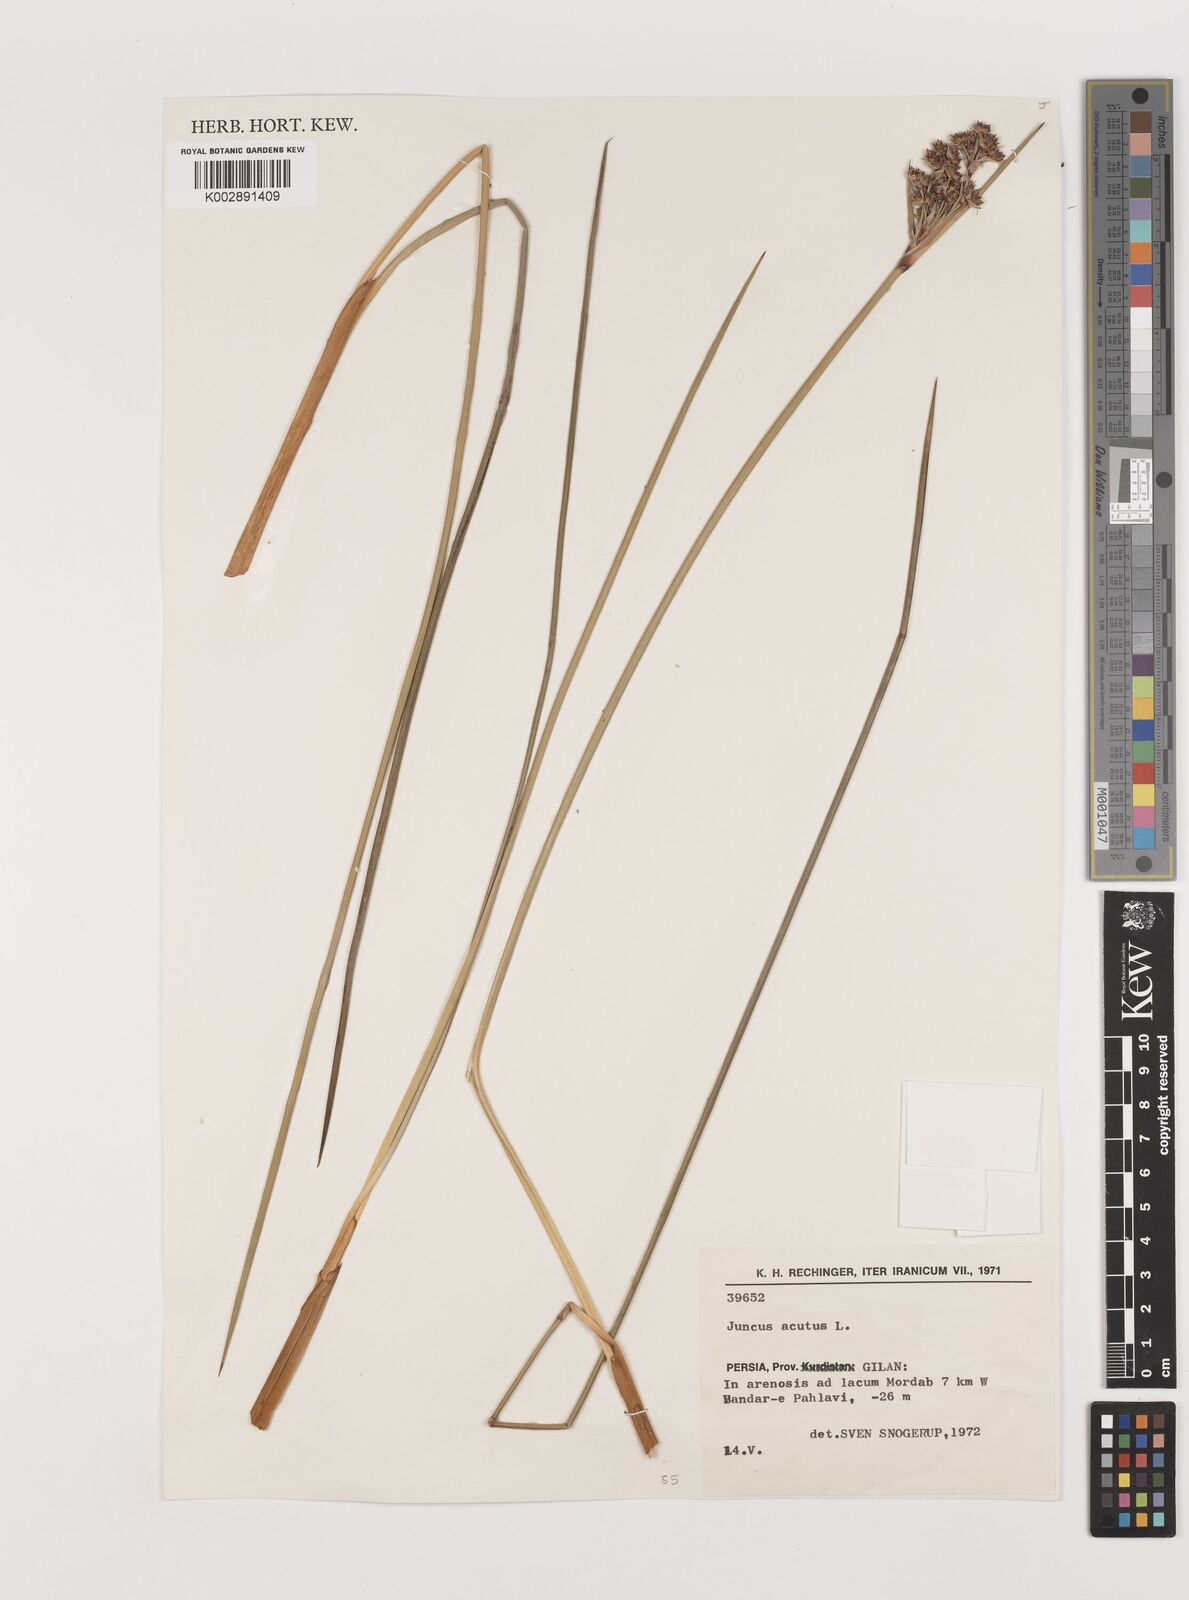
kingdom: Plantae
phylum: Tracheophyta
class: Liliopsida
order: Poales
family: Juncaceae
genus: Juncus
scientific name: Juncus acutus
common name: Sharp rush
